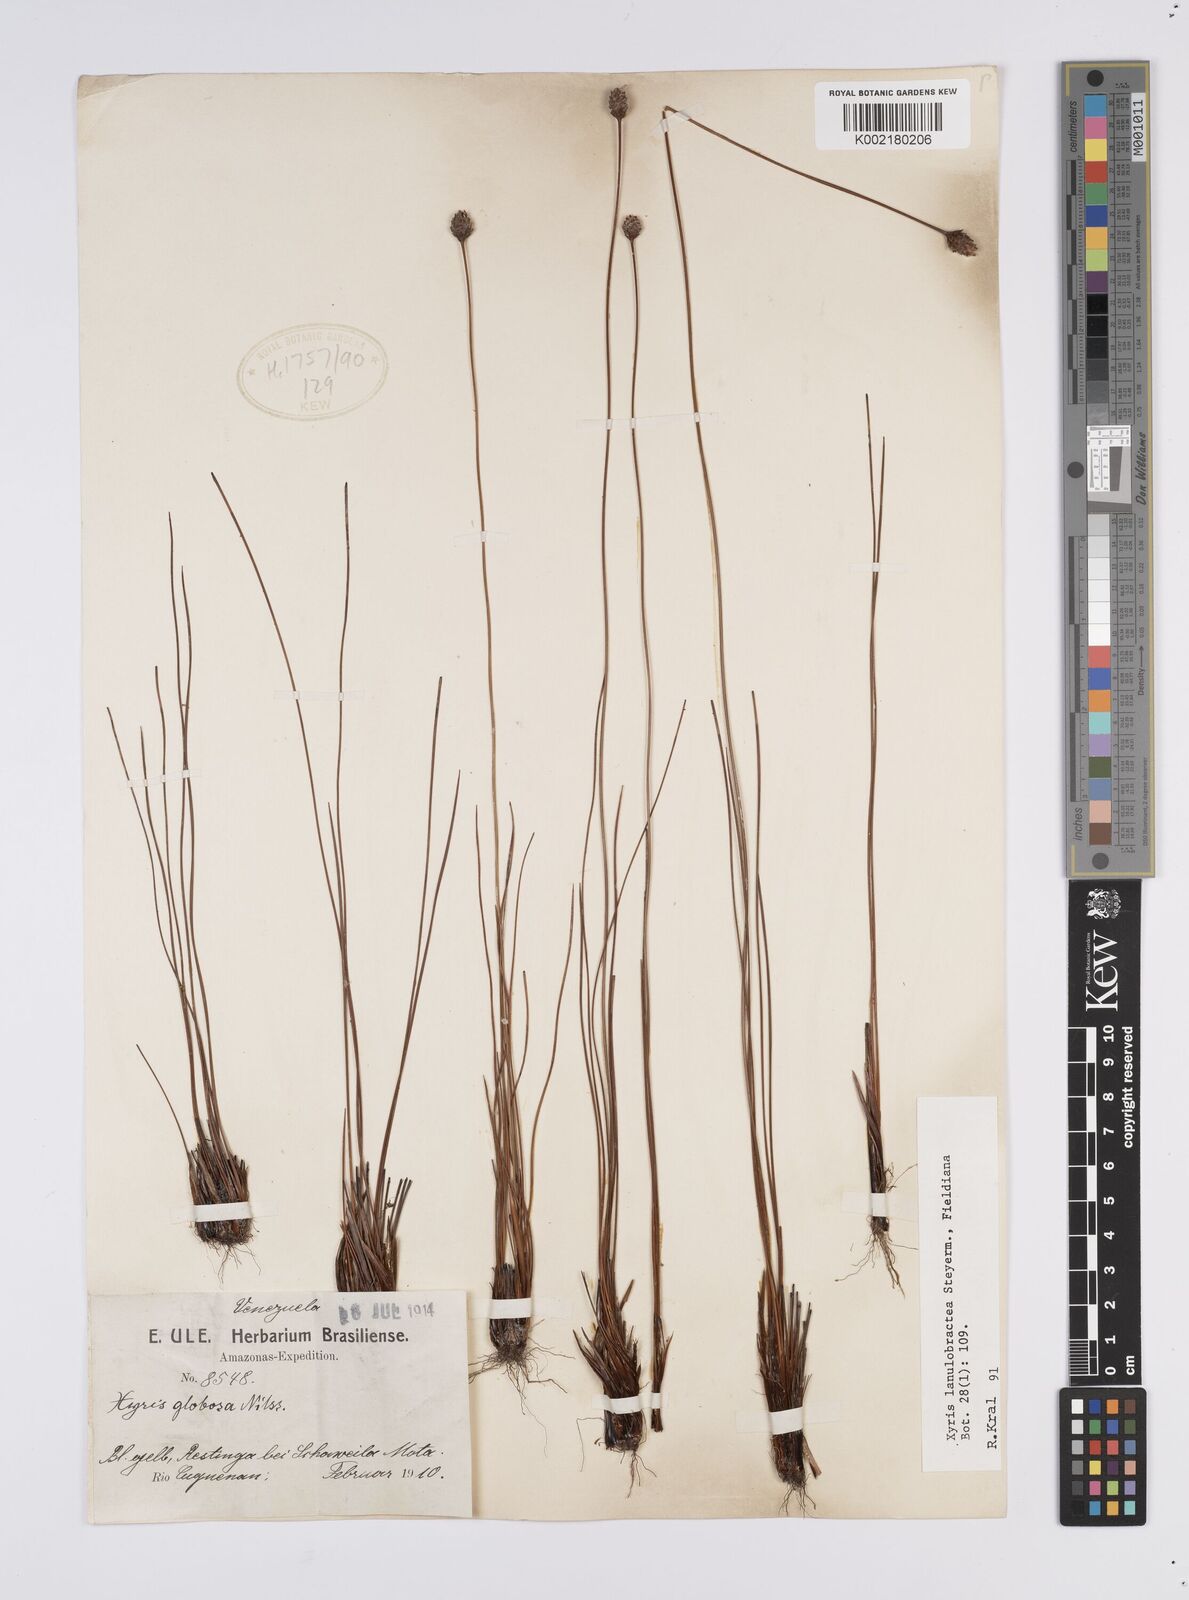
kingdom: Plantae
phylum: Tracheophyta
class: Liliopsida
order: Poales
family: Xyridaceae
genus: Xyris
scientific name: Xyris lanulobractea
